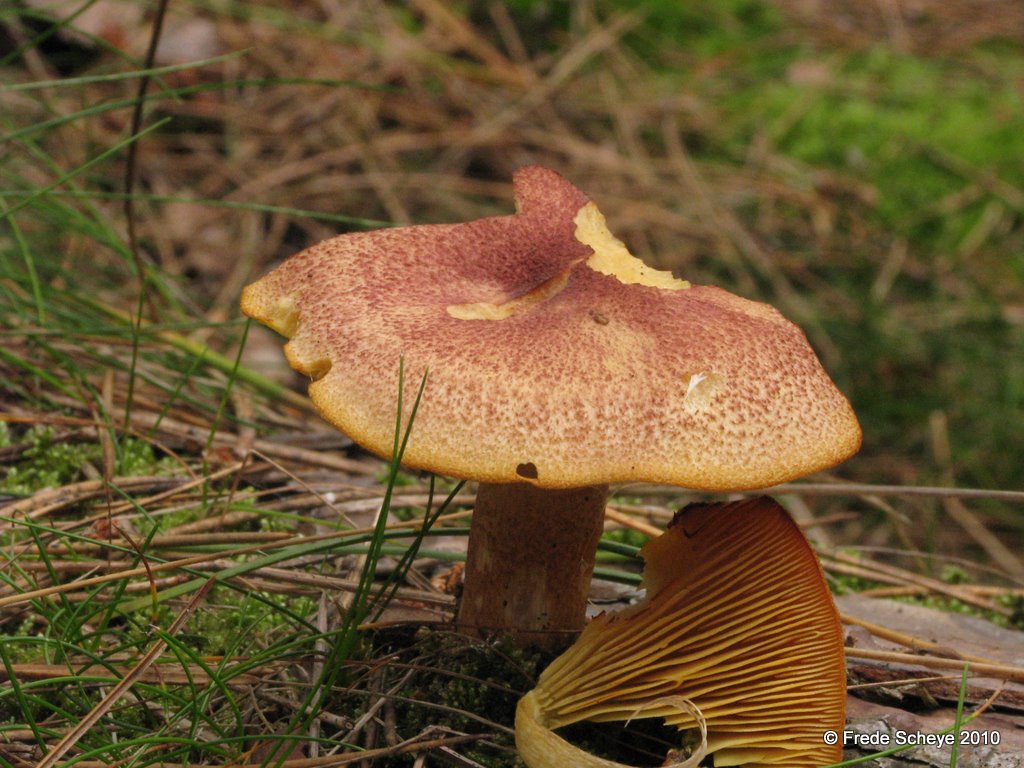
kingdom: Fungi
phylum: Basidiomycota
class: Agaricomycetes
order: Agaricales
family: Tricholomataceae
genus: Tricholomopsis
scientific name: Tricholomopsis rutilans
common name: purpur-væbnerhat
